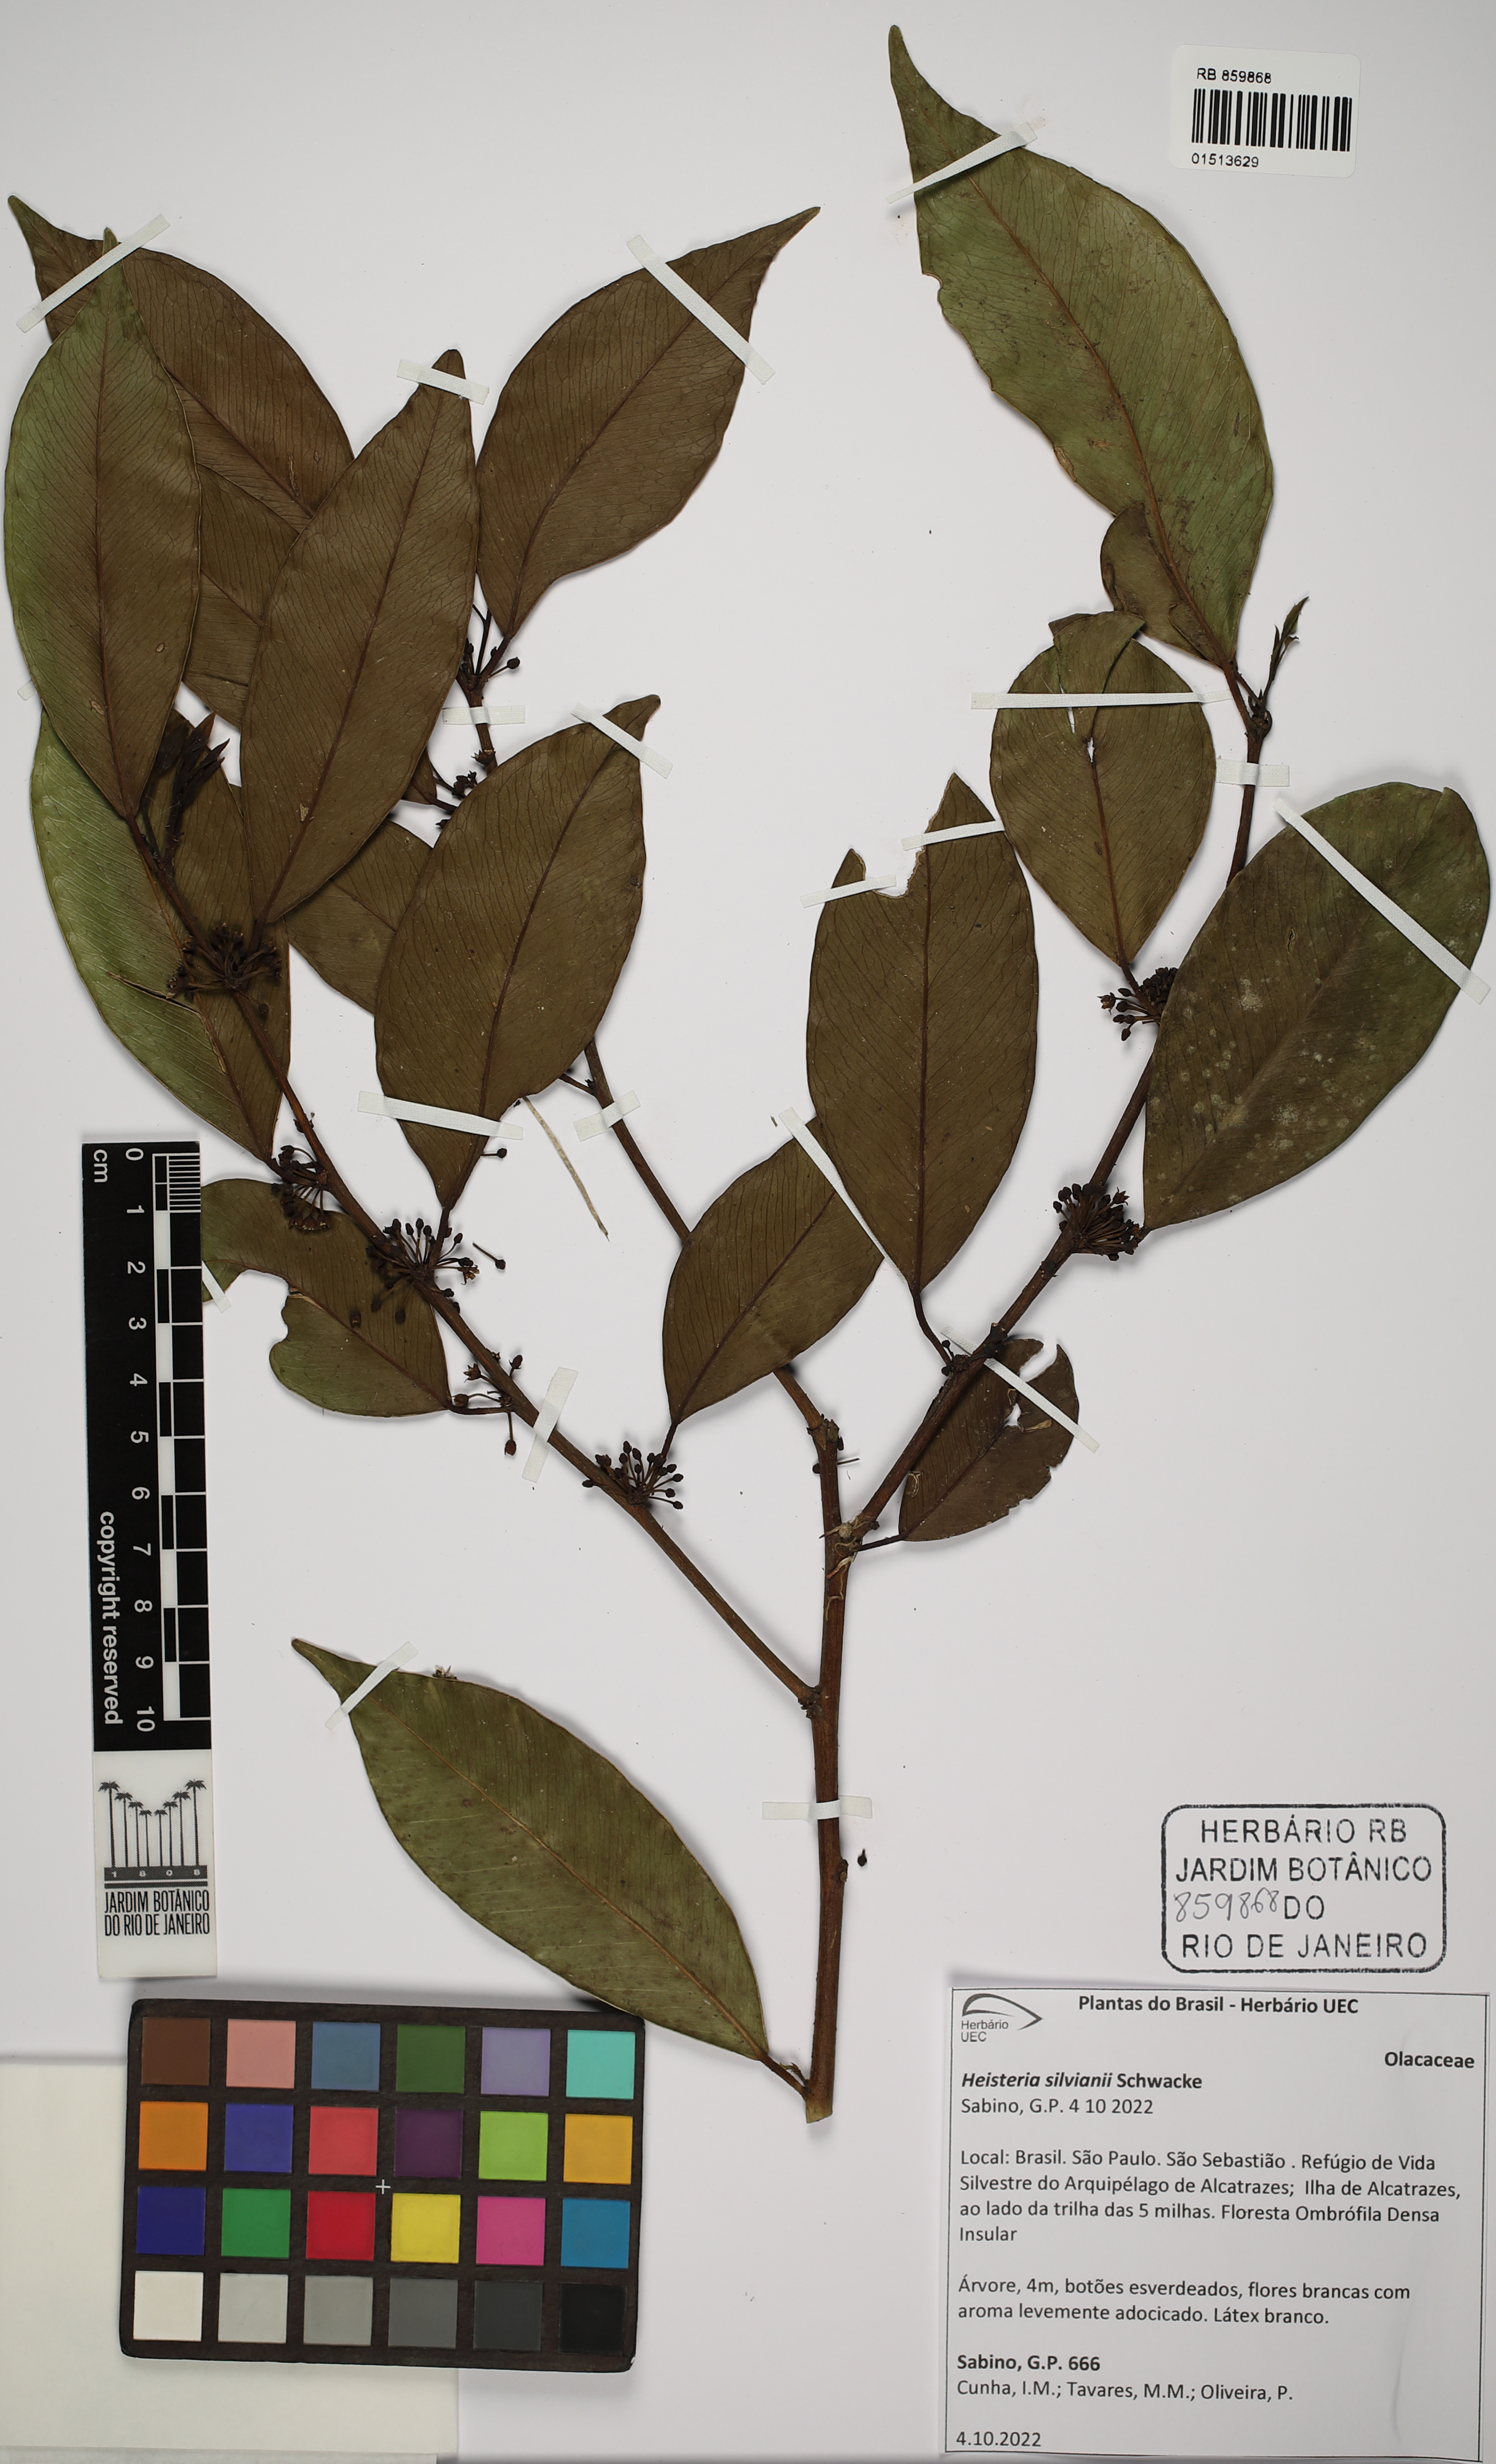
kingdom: Plantae
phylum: Tracheophyta
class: Magnoliopsida
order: Santalales
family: Erythropalaceae
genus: Heisteria
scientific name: Heisteria silvianii
